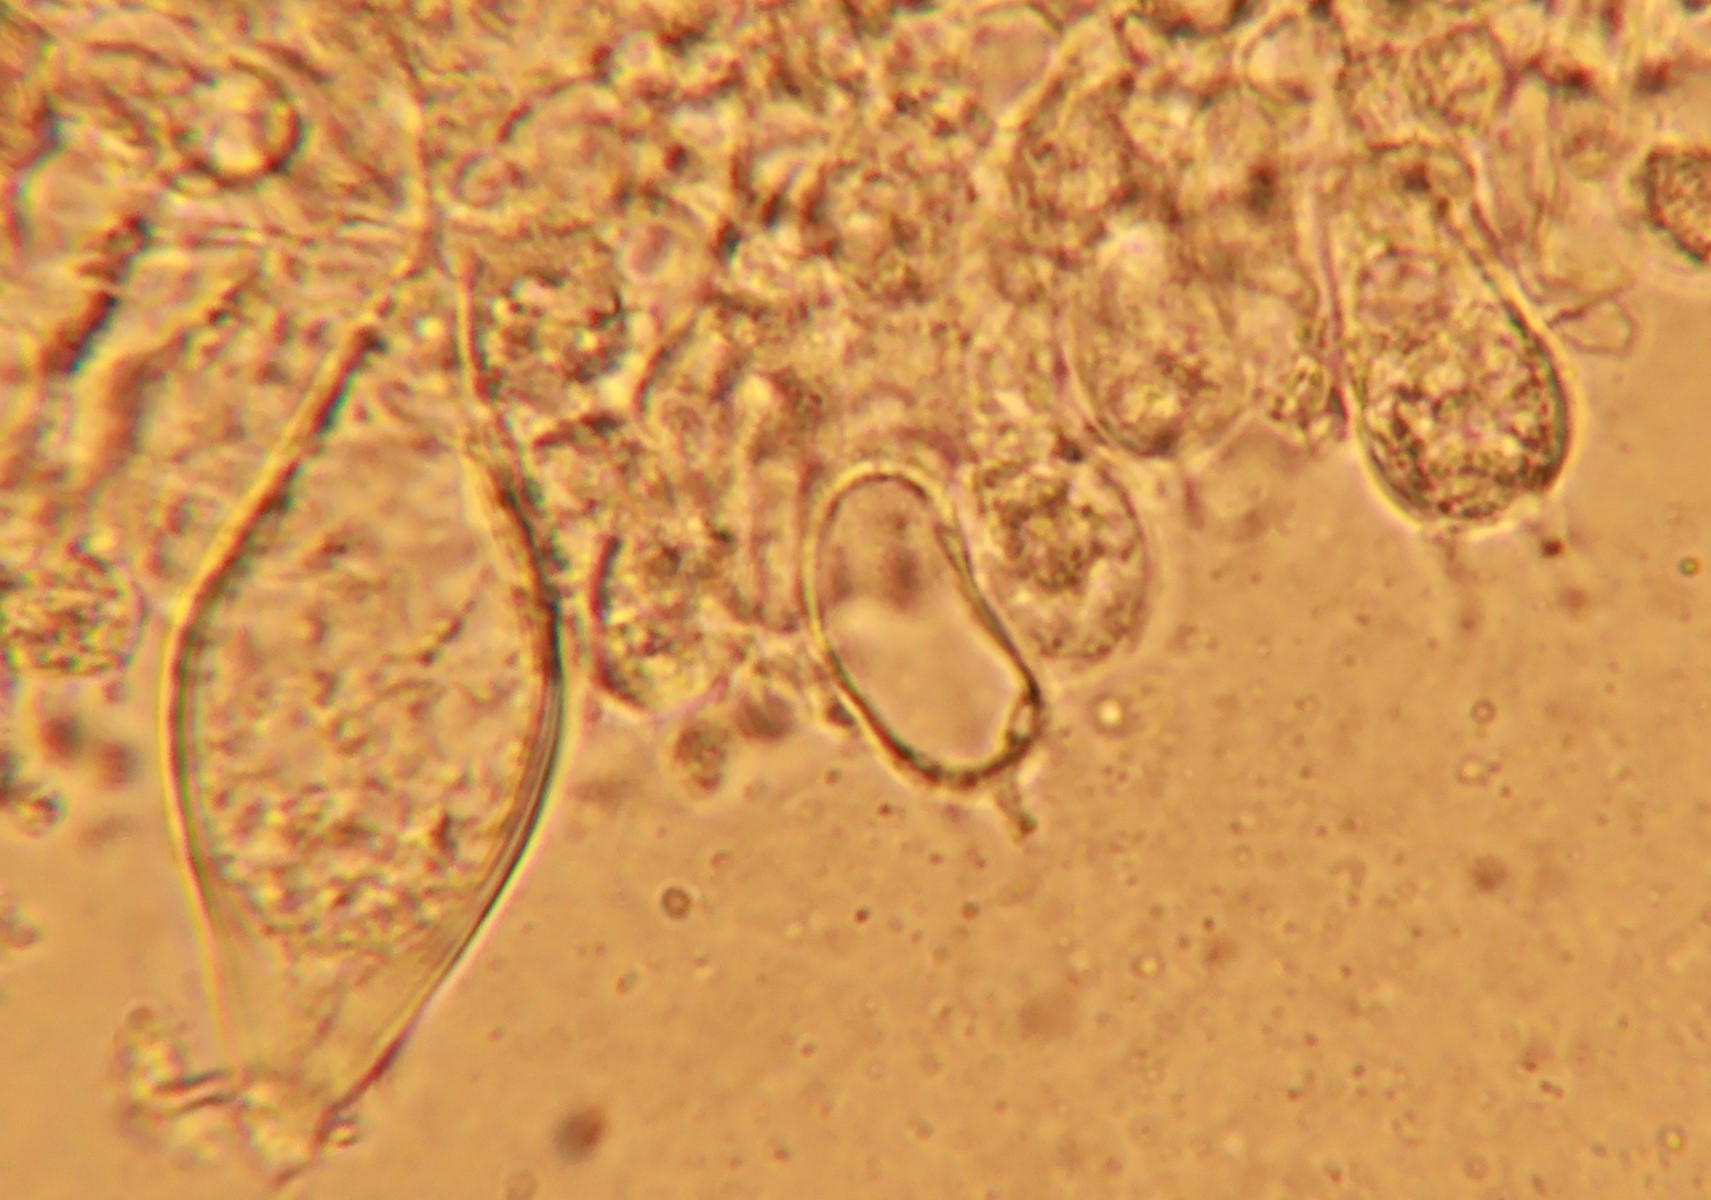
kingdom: Fungi
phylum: Basidiomycota
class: Agaricomycetes
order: Agaricales
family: Inocybaceae
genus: Inocybe
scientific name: Inocybe curvipes
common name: plæne-trævlhat
